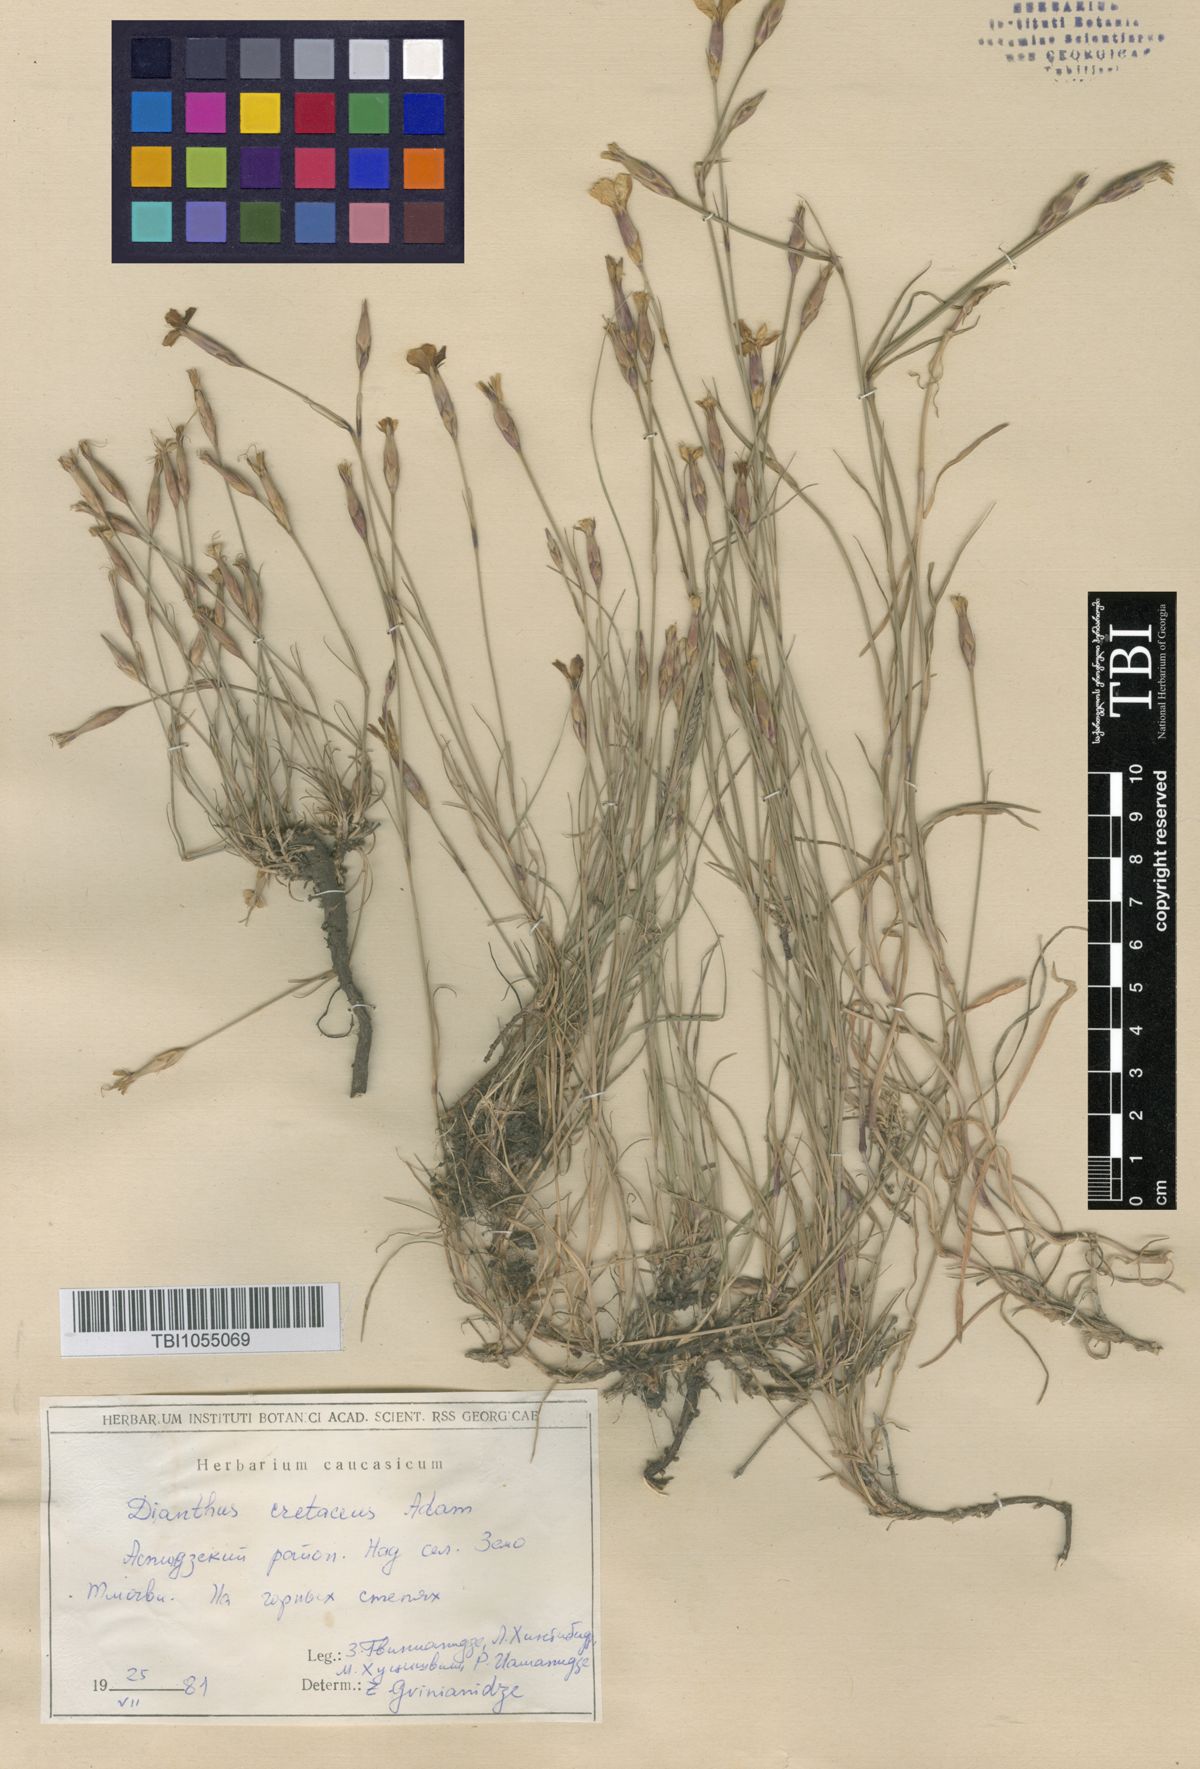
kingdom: Plantae
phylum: Tracheophyta
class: Magnoliopsida
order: Caryophyllales
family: Caryophyllaceae
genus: Dianthus
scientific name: Dianthus cretaceus
